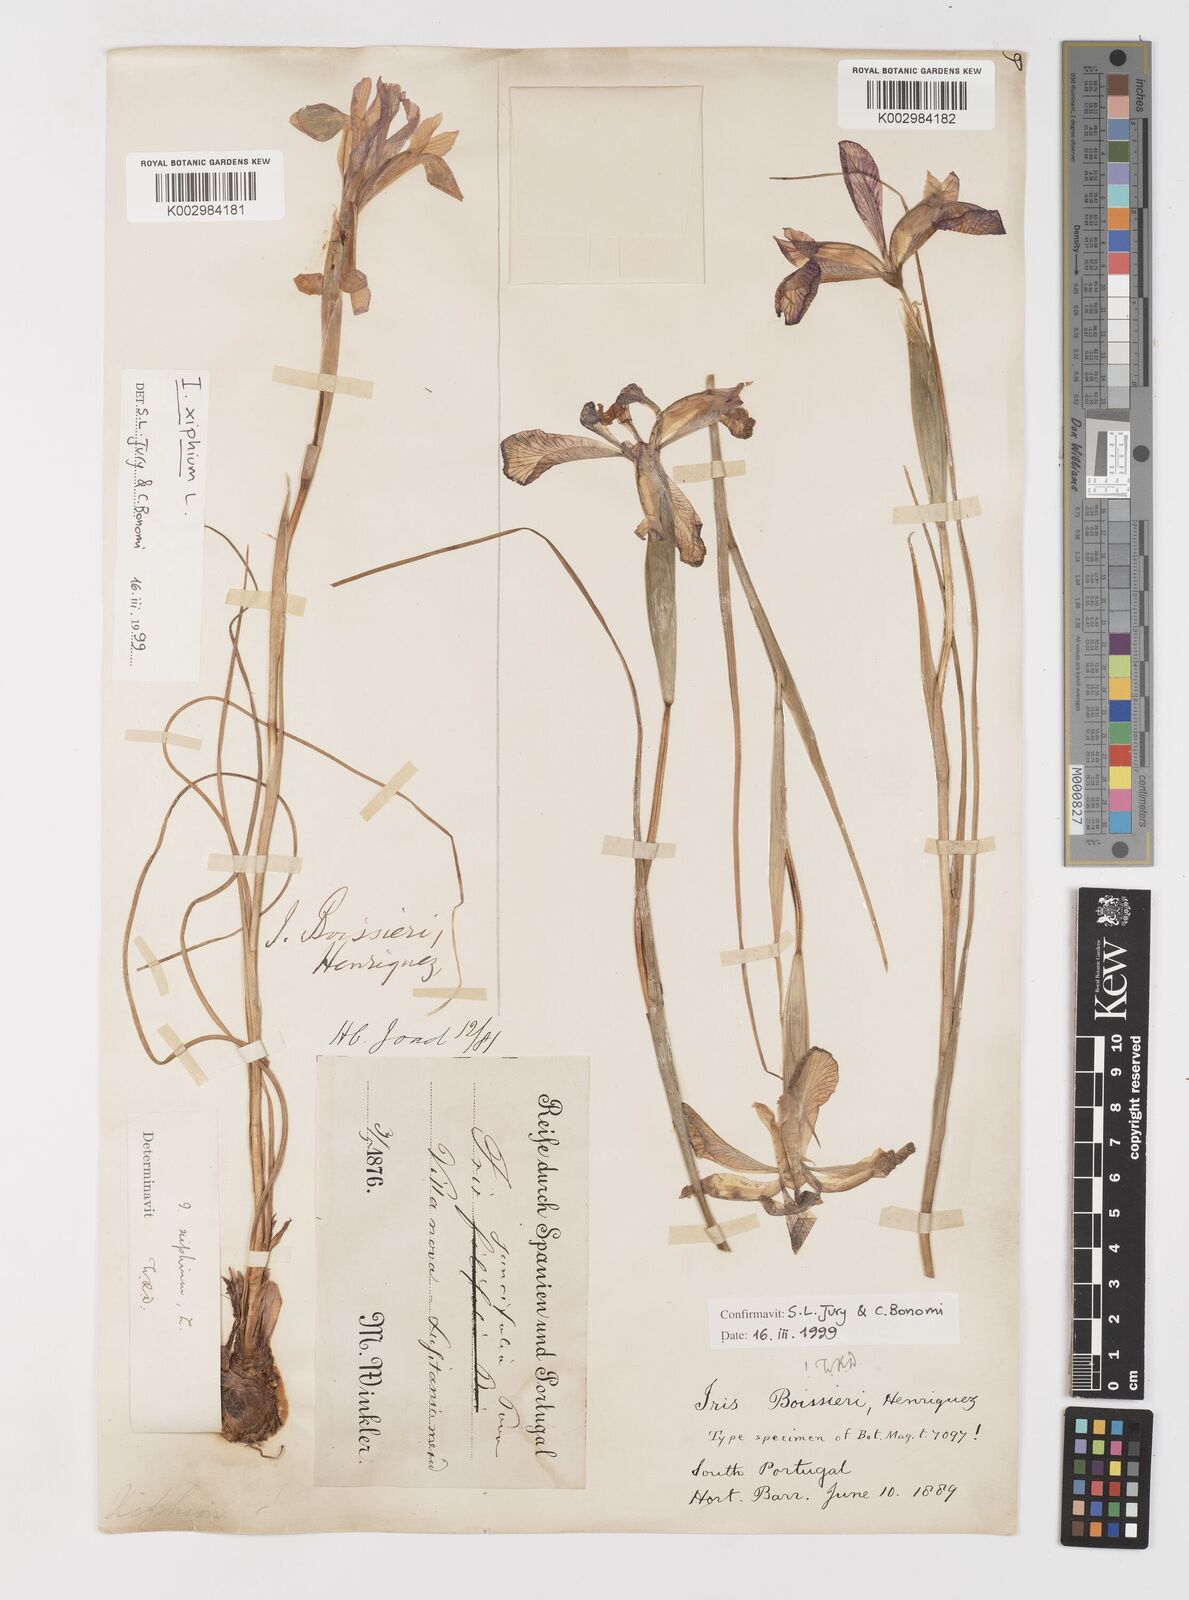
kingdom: Plantae
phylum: Tracheophyta
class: Liliopsida
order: Asparagales
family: Iridaceae
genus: Iris
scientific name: Iris boissieri
